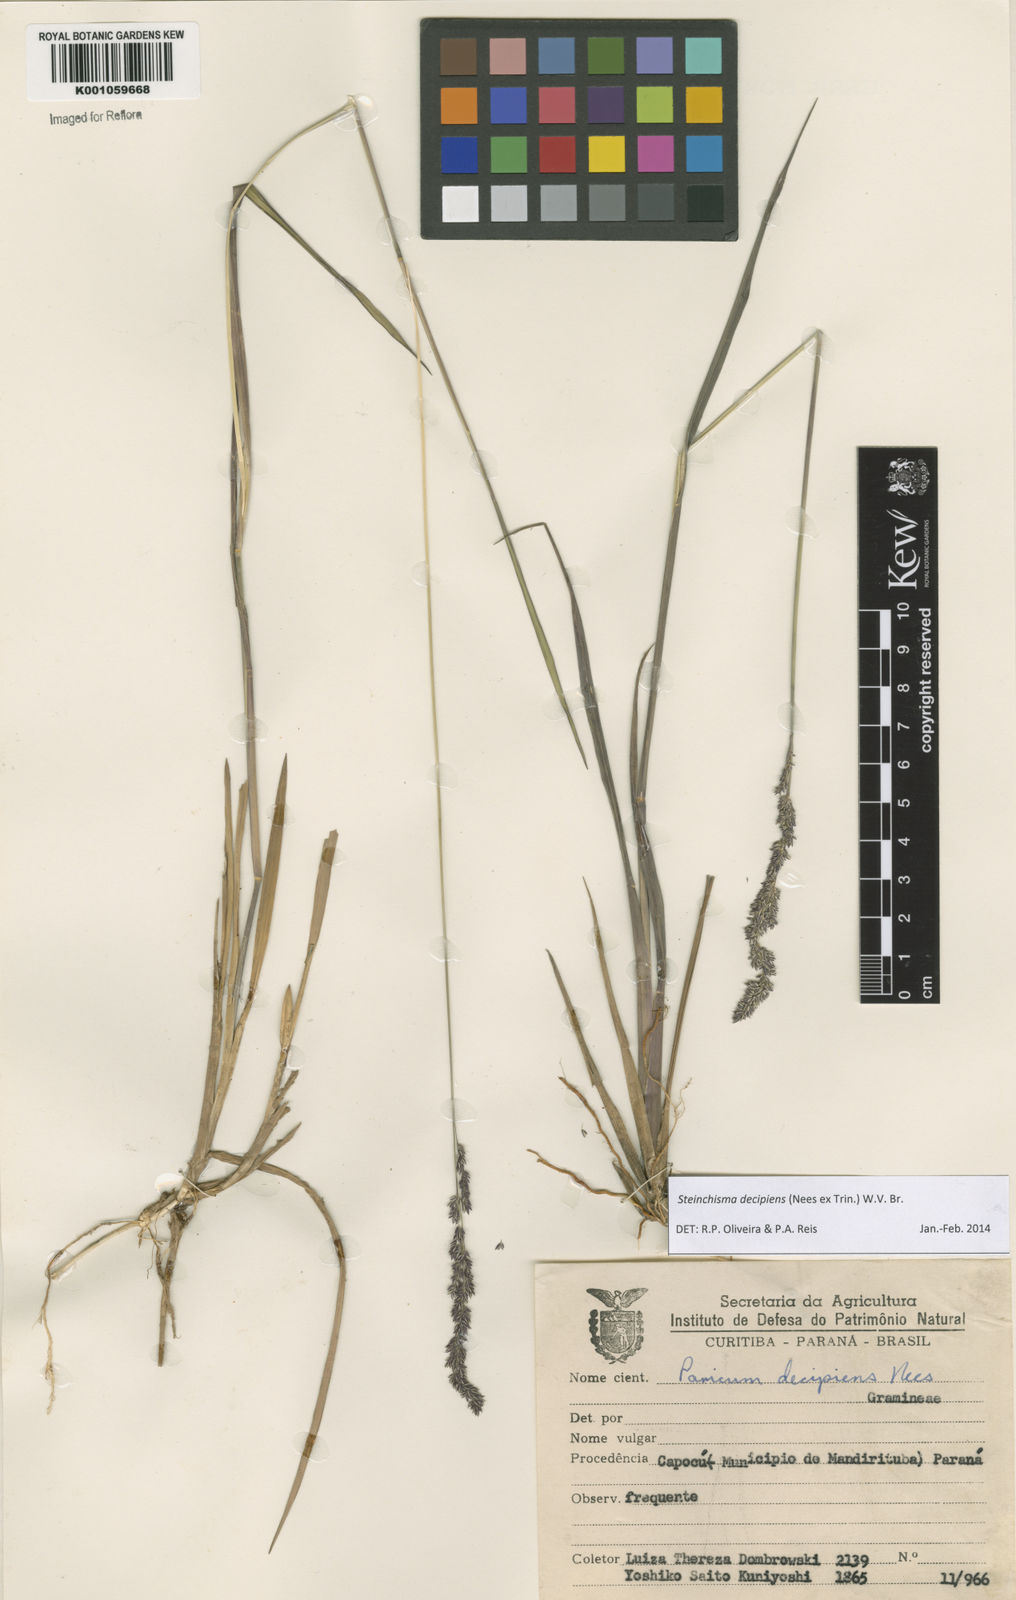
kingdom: Plantae
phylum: Tracheophyta
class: Liliopsida
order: Poales
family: Poaceae
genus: Steinchisma
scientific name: Steinchisma decipiens
